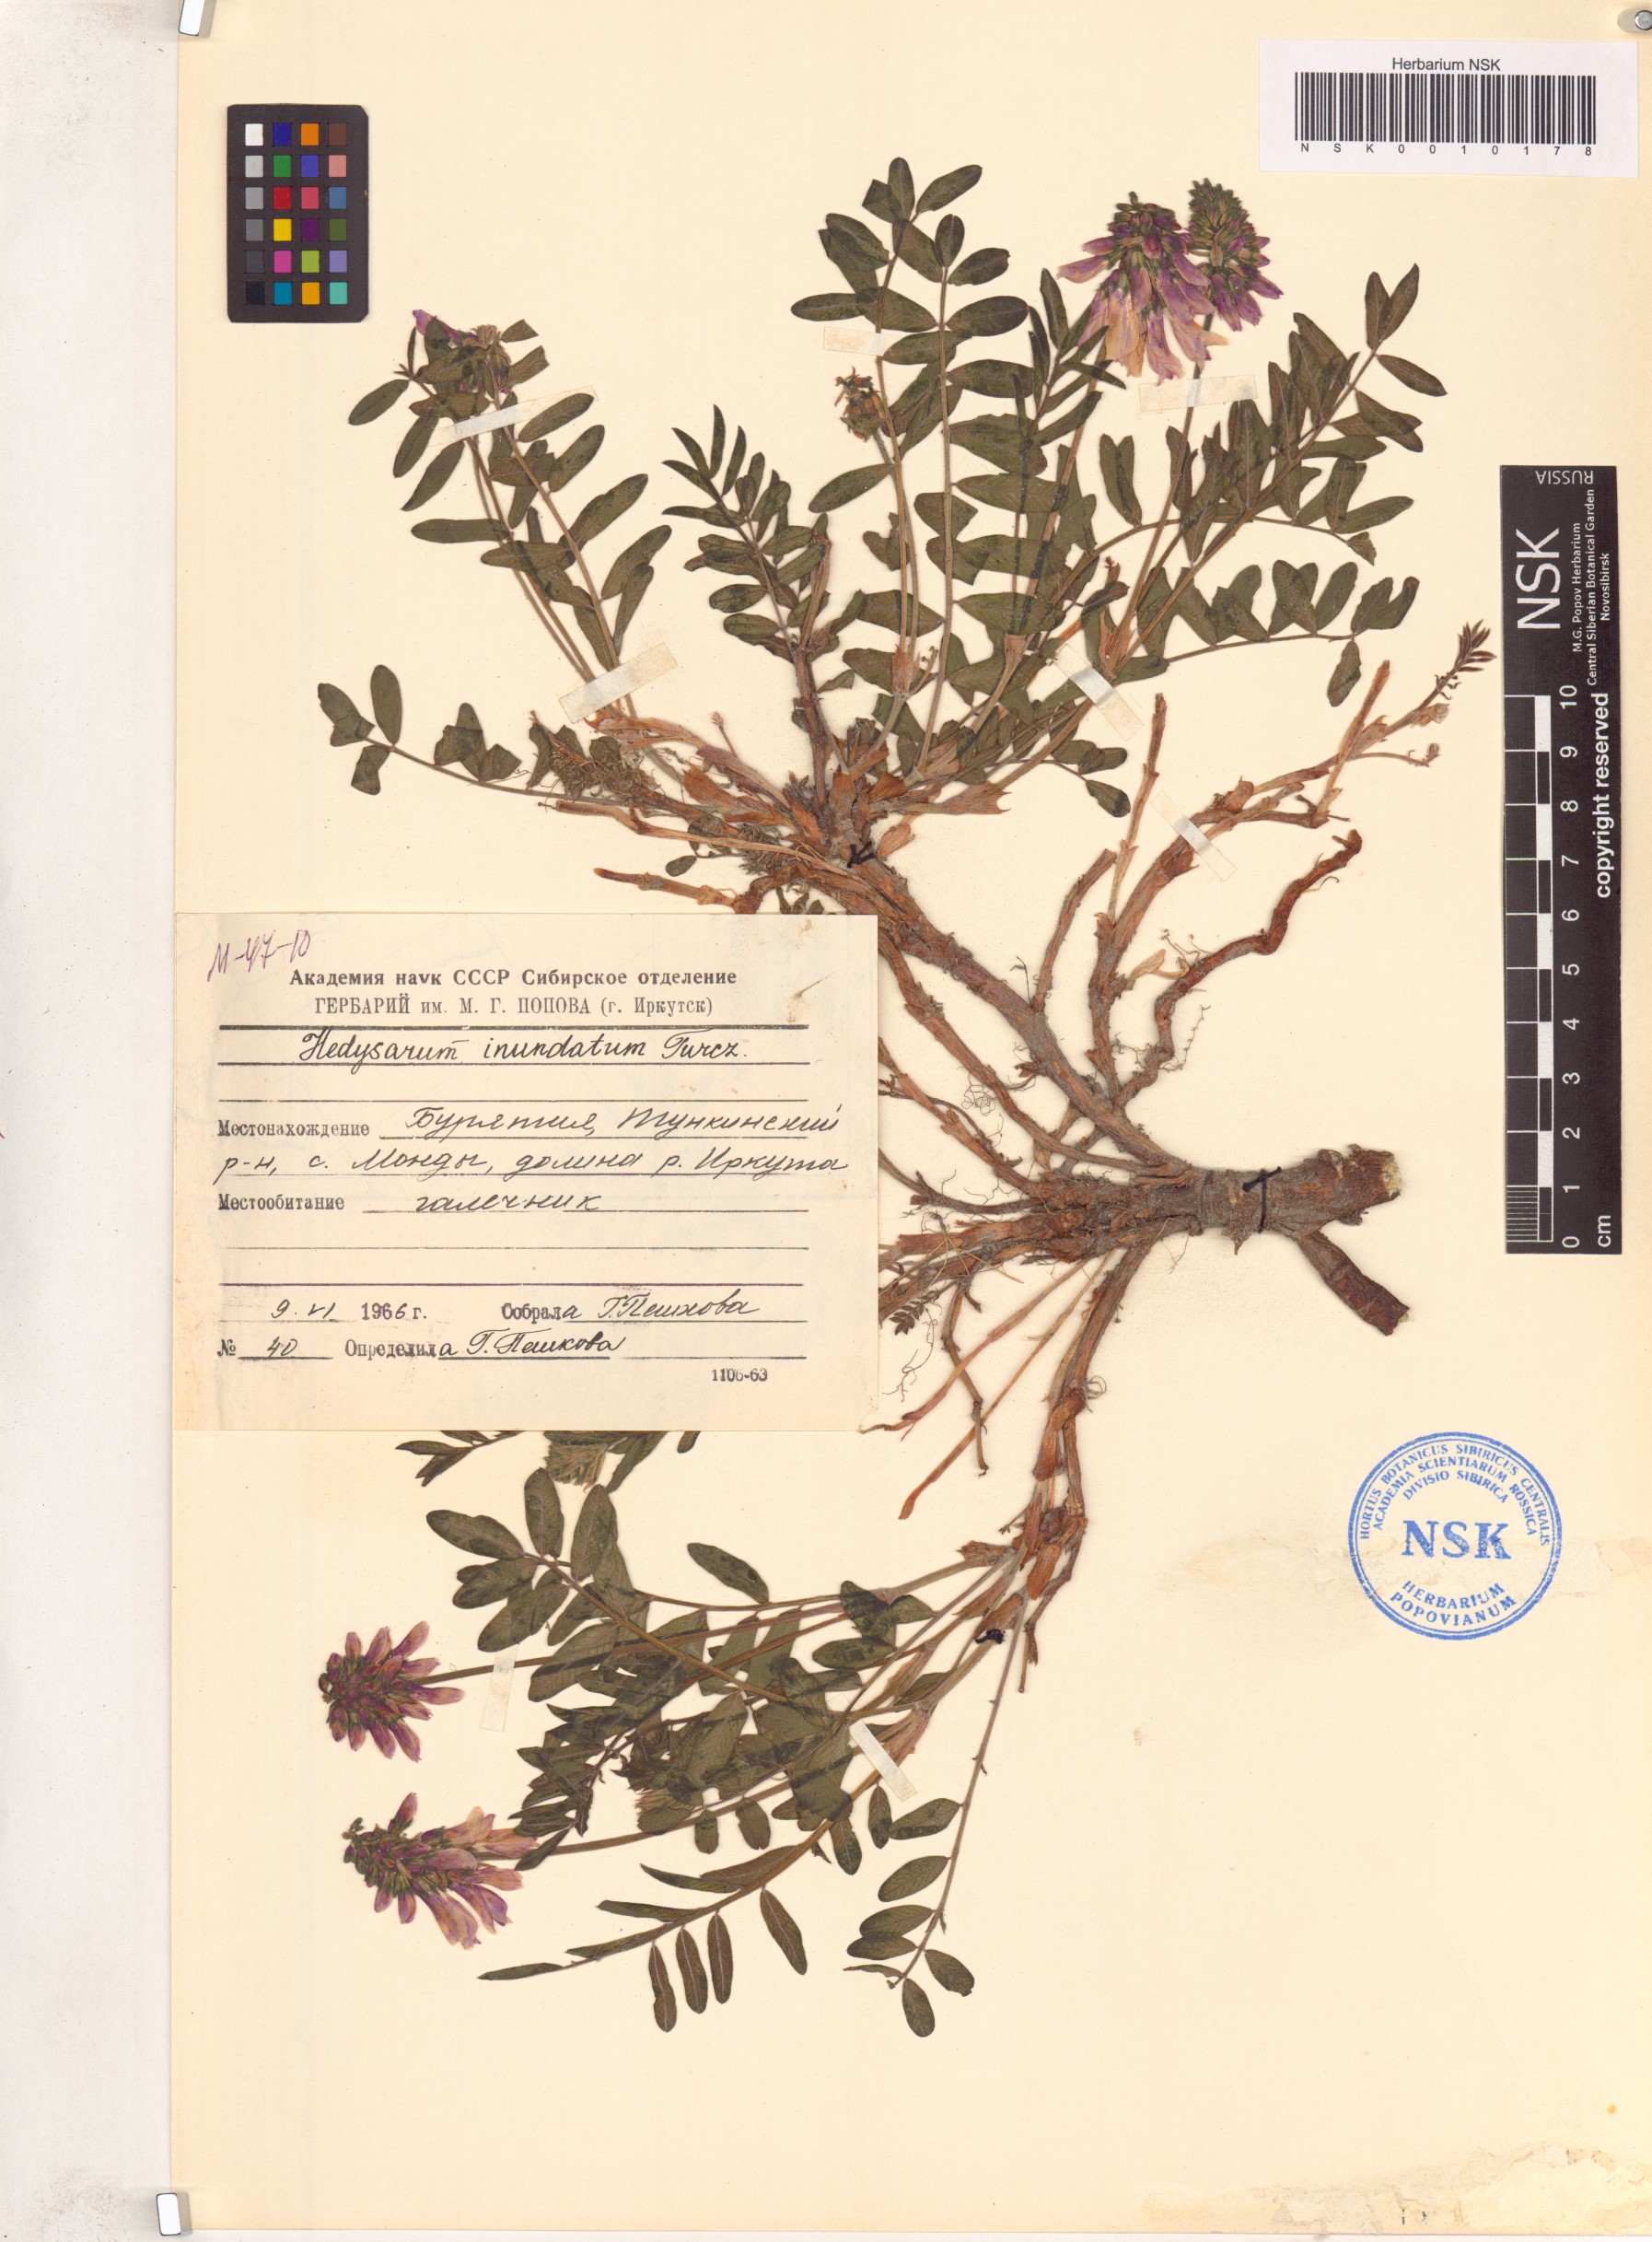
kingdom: Plantae
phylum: Tracheophyta
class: Magnoliopsida
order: Fabales
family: Fabaceae
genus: Hedysarum
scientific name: Hedysarum inundatum
